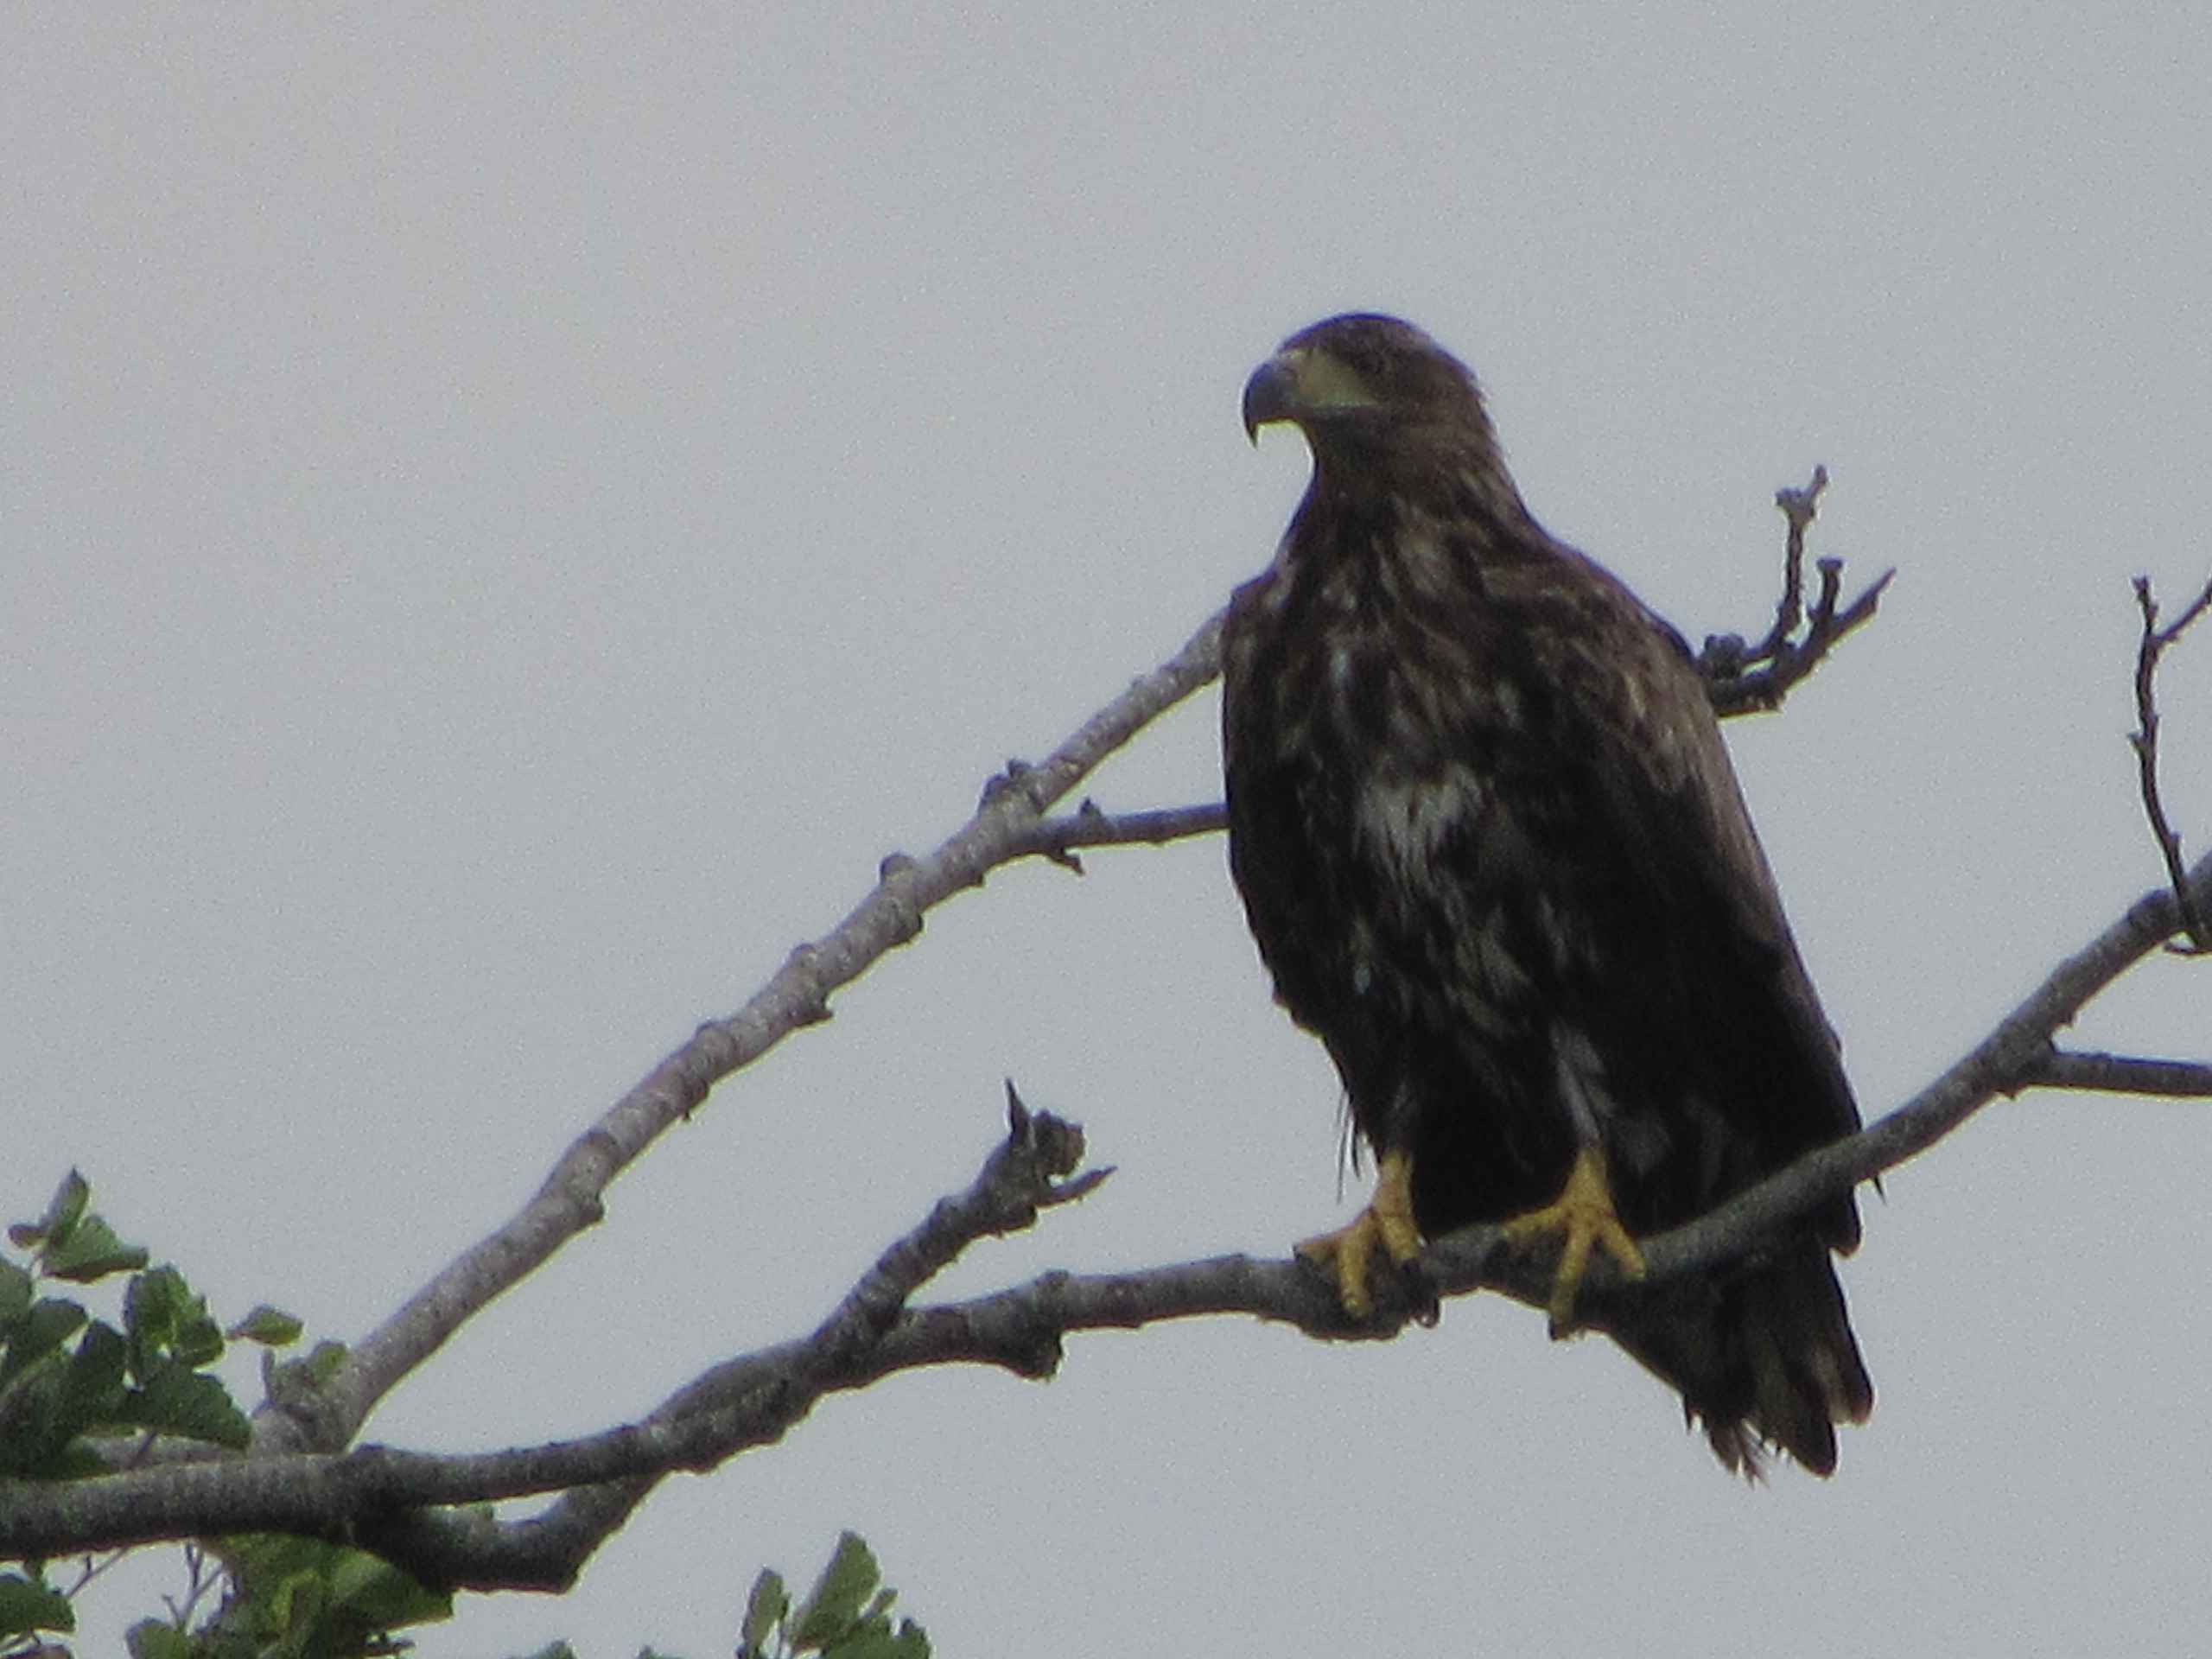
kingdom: Animalia
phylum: Chordata
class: Aves
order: Accipitriformes
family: Accipitridae
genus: Haliaeetus
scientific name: Haliaeetus albicilla
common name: Havørn
